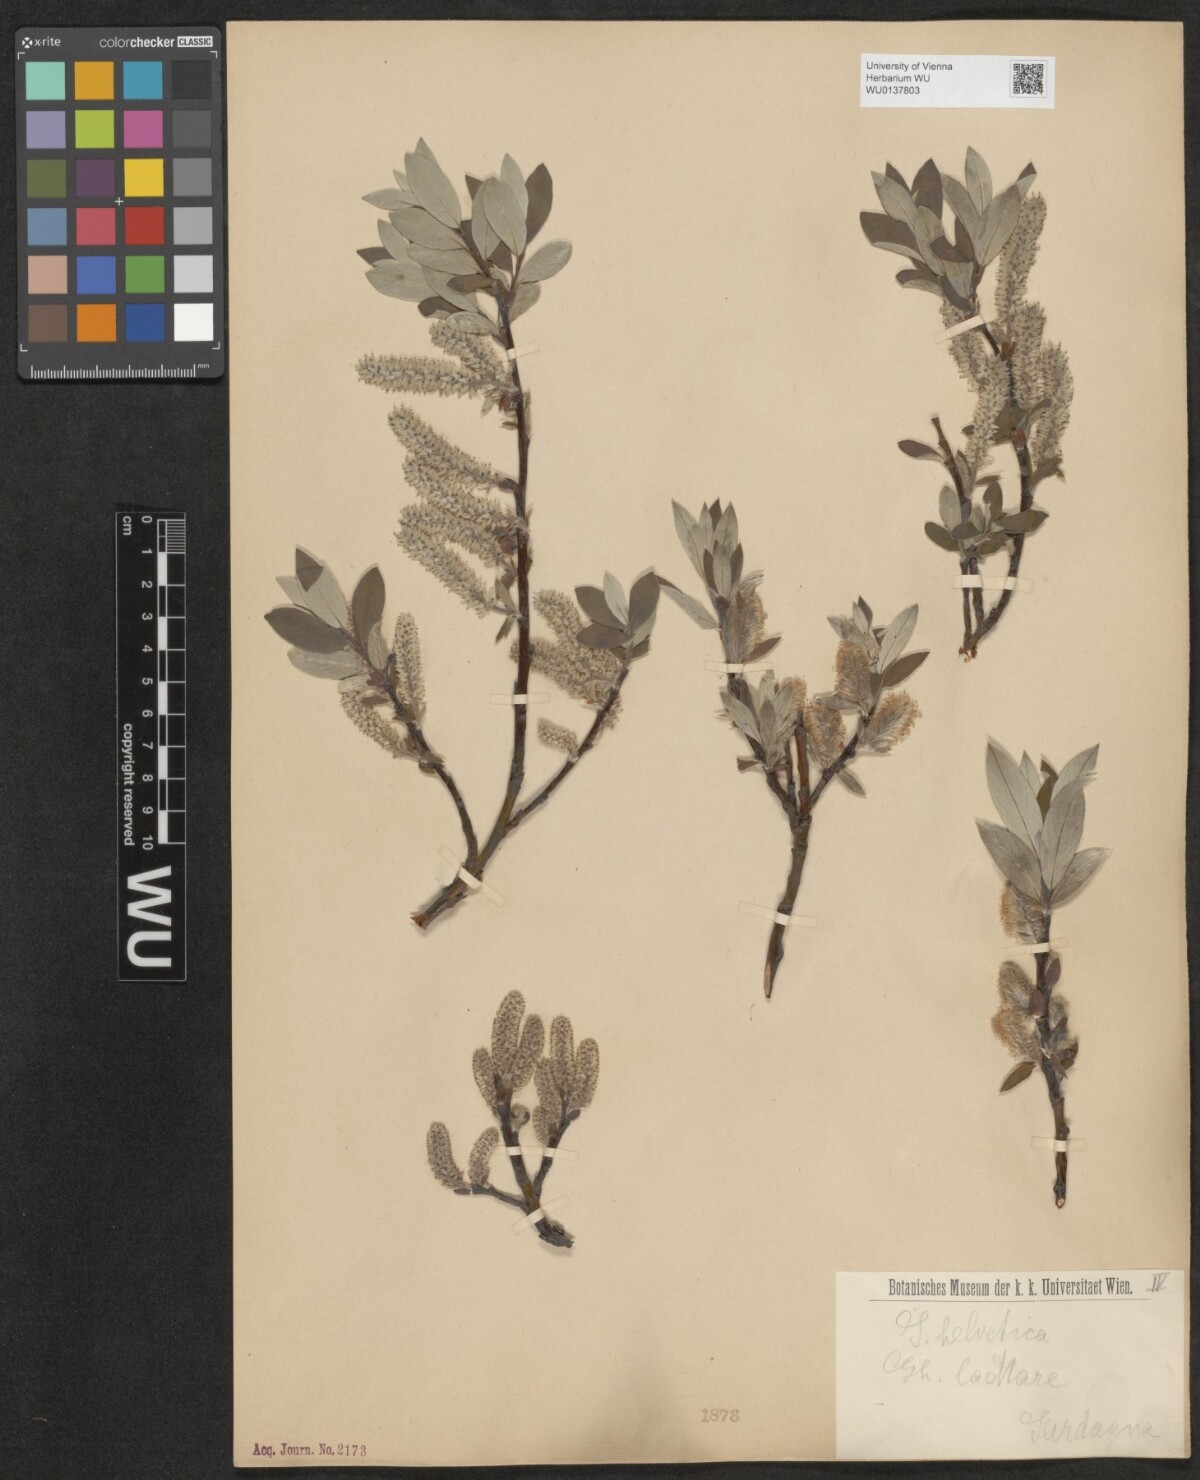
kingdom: Plantae
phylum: Tracheophyta
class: Magnoliopsida
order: Malpighiales
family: Salicaceae
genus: Salix
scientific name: Salix helvetica
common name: Swiss willow
